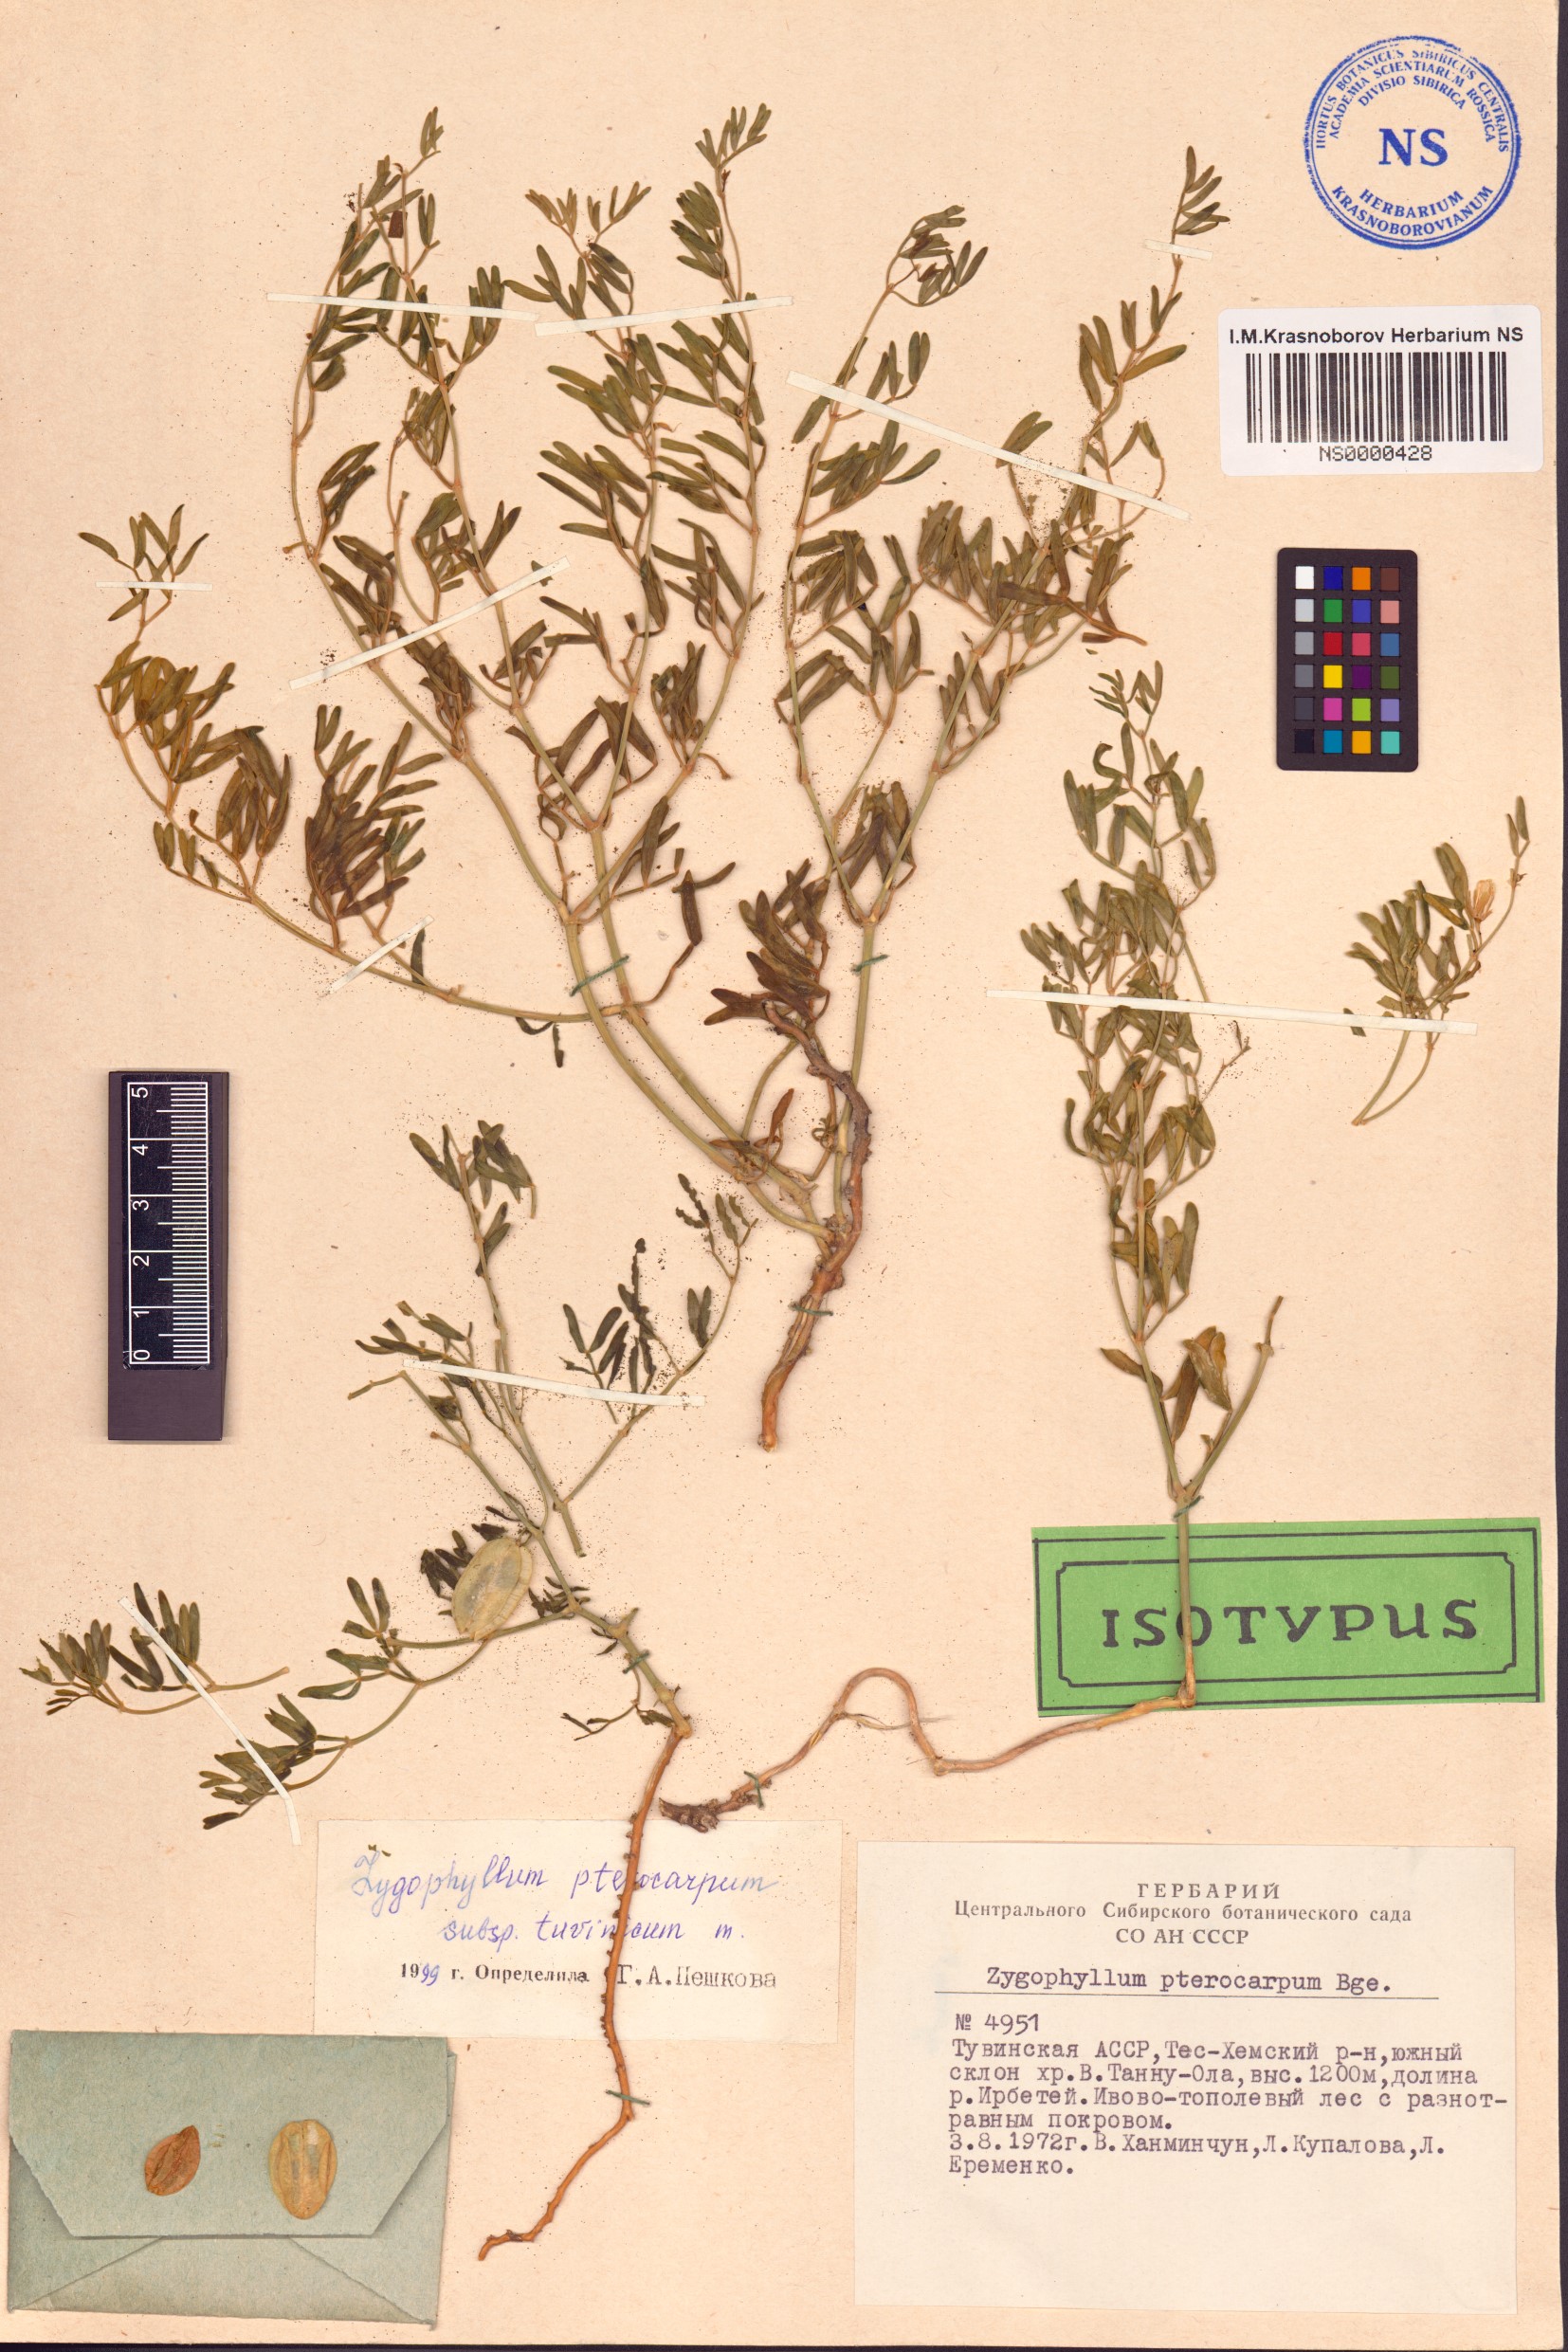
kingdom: Plantae
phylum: Tracheophyta
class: Magnoliopsida
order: Zygophyllales
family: Zygophyllaceae
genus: Zygophyllum
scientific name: Zygophyllum pterocarpum
